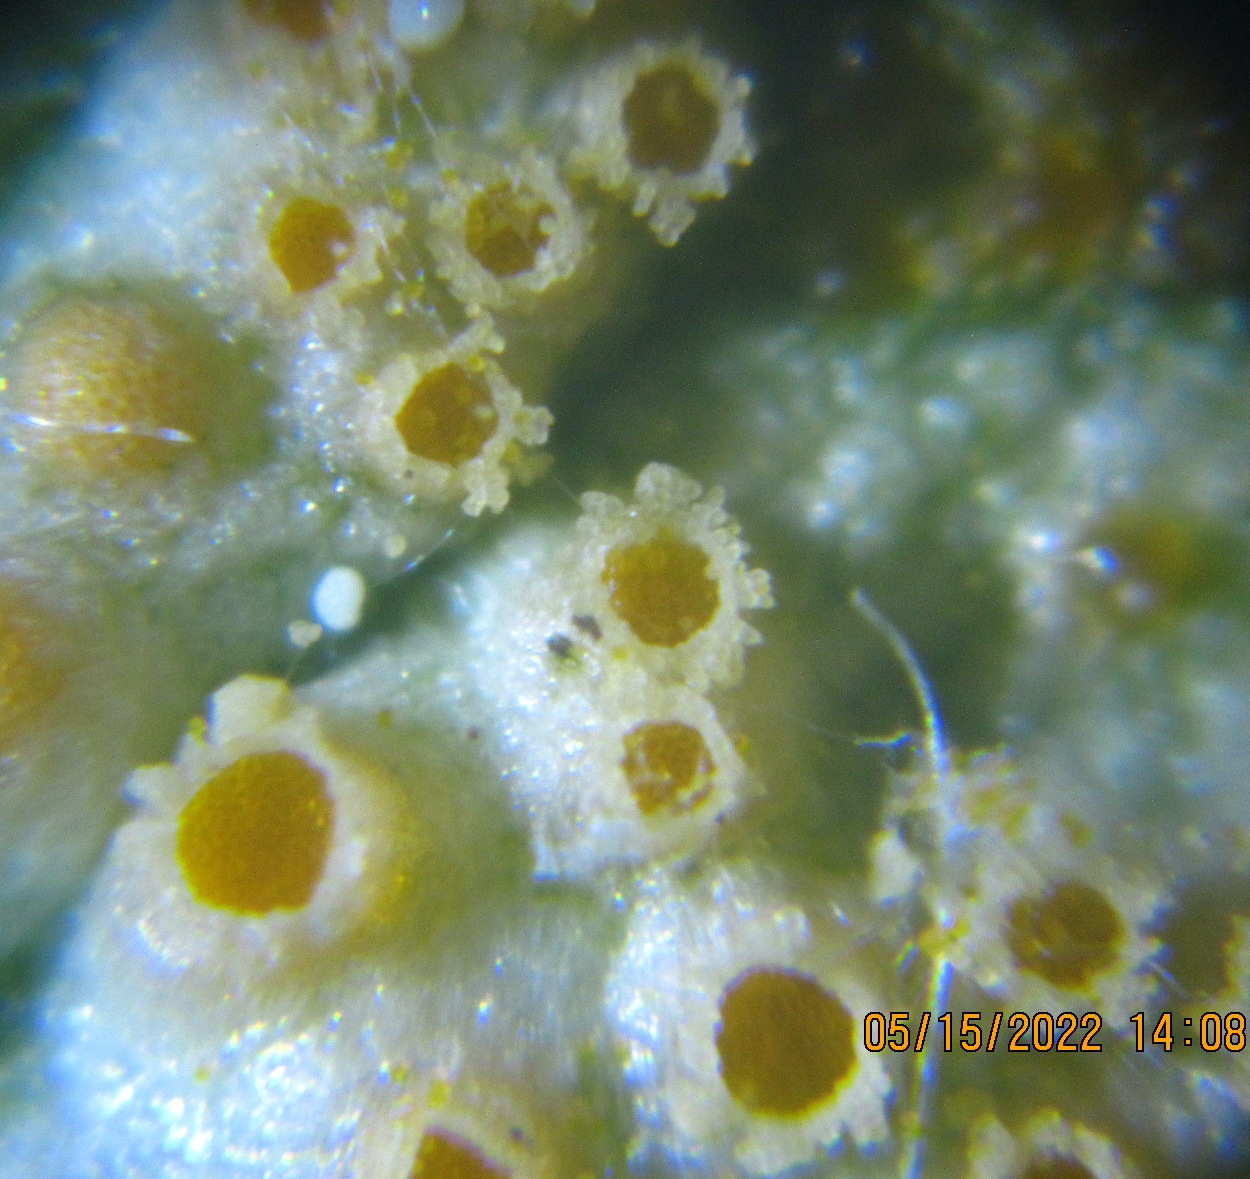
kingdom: Fungi
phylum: Basidiomycota
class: Pucciniomycetes
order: Pucciniales
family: Pucciniaceae
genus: Puccinia
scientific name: Puccinia sessilis
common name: Arum rust
